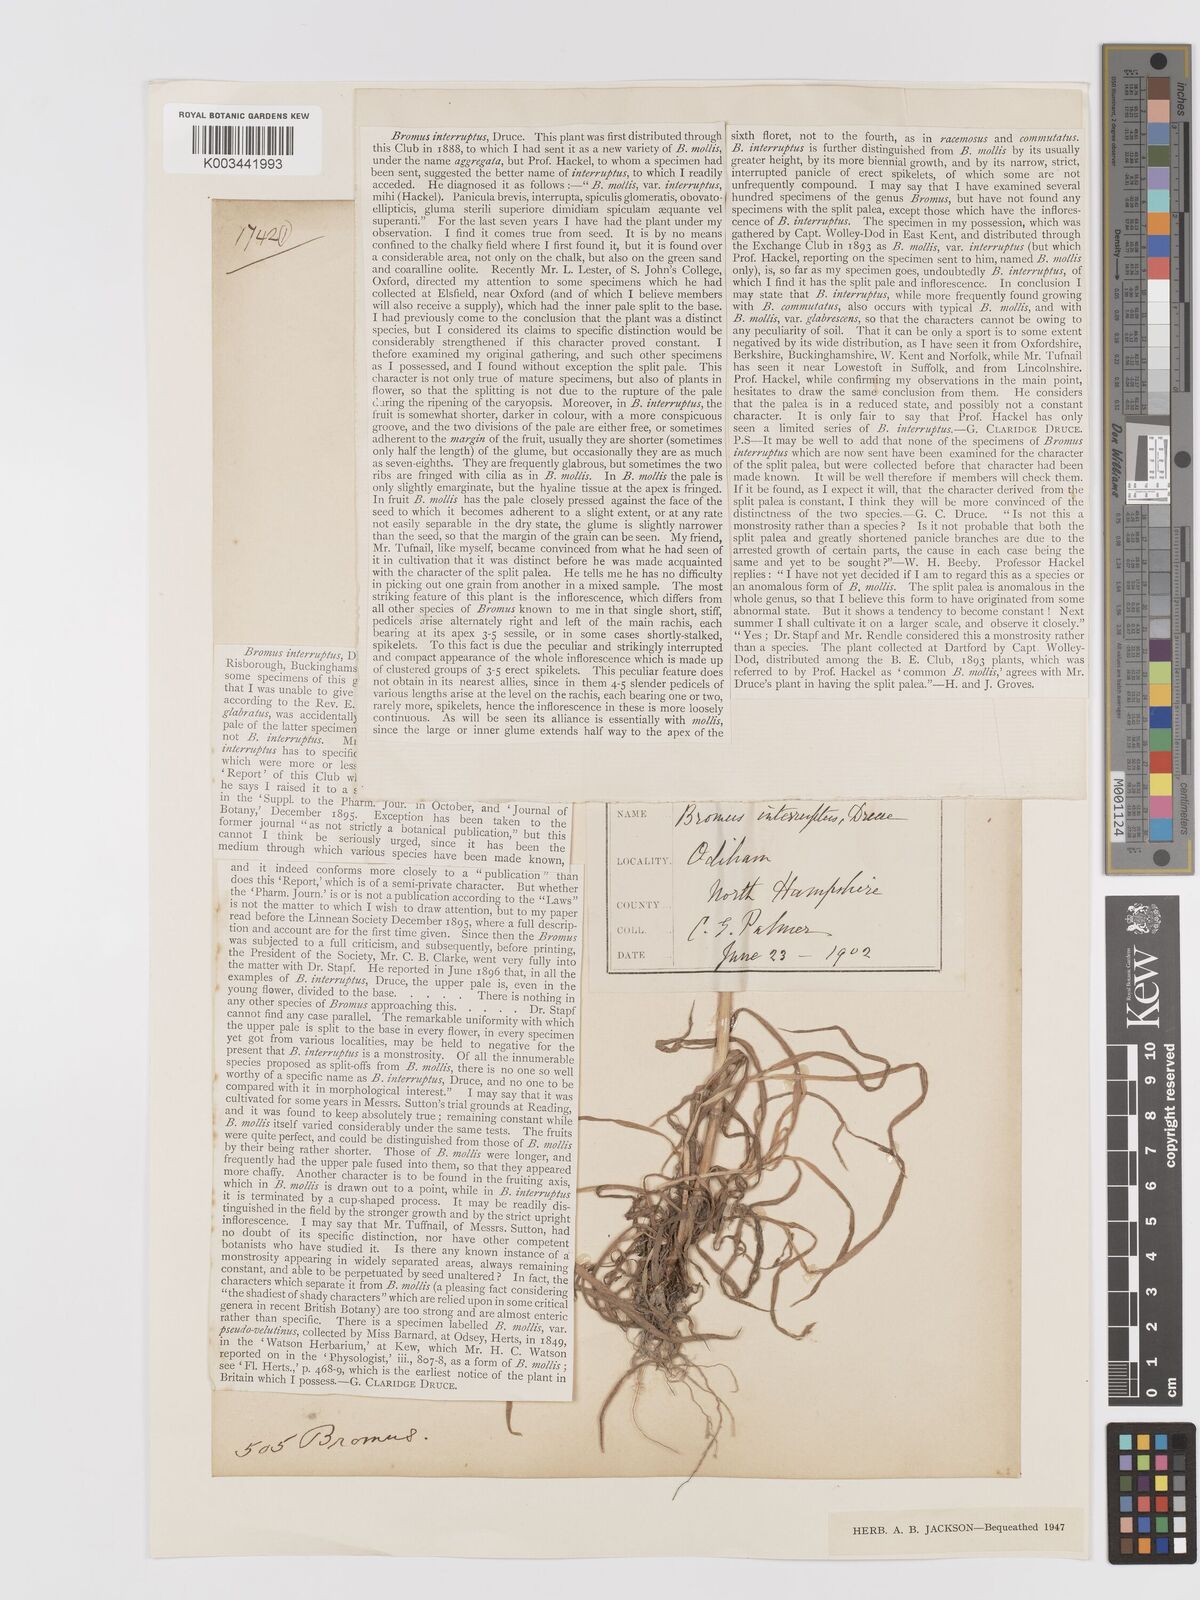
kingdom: Plantae
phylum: Tracheophyta
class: Liliopsida
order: Poales
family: Poaceae
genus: Bromus
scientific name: Bromus interruptus
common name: Interrupted brome
